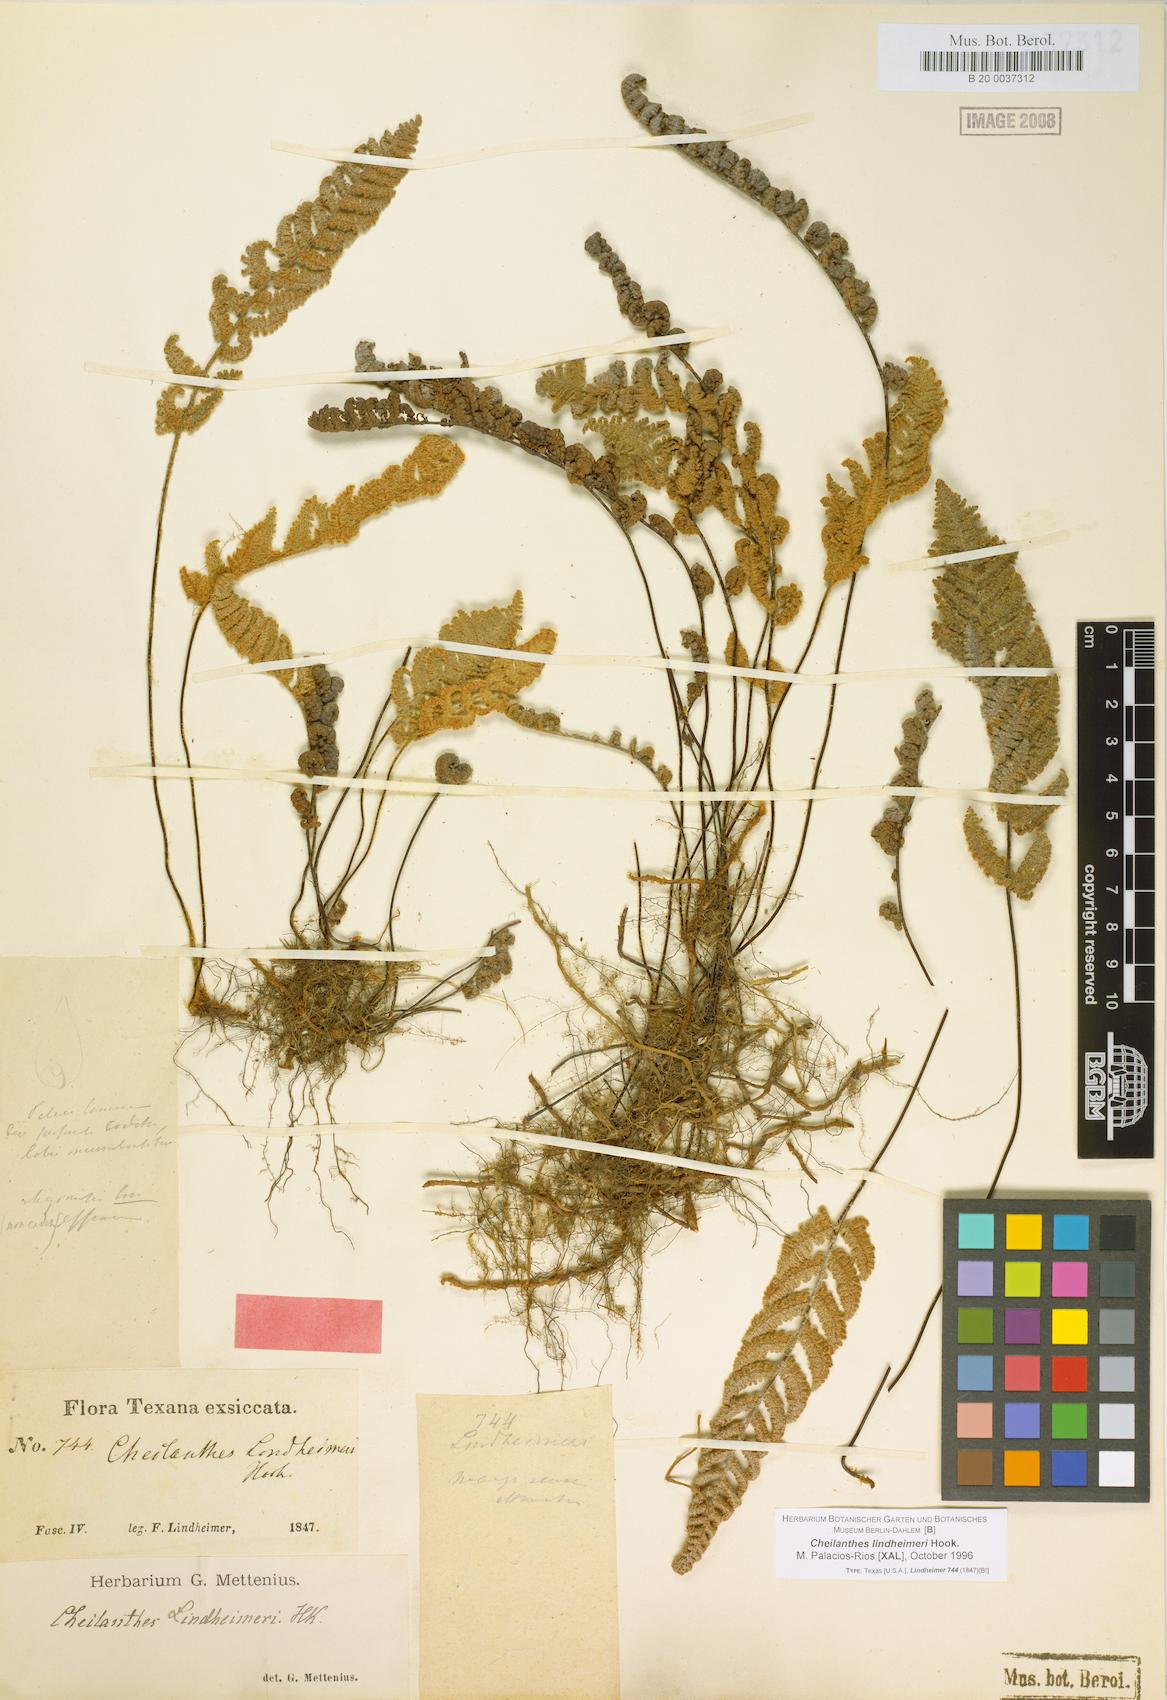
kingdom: Plantae
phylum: Tracheophyta
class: Polypodiopsida
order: Polypodiales
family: Pteridaceae
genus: Myriopteris
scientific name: Myriopteris lindheimeri
